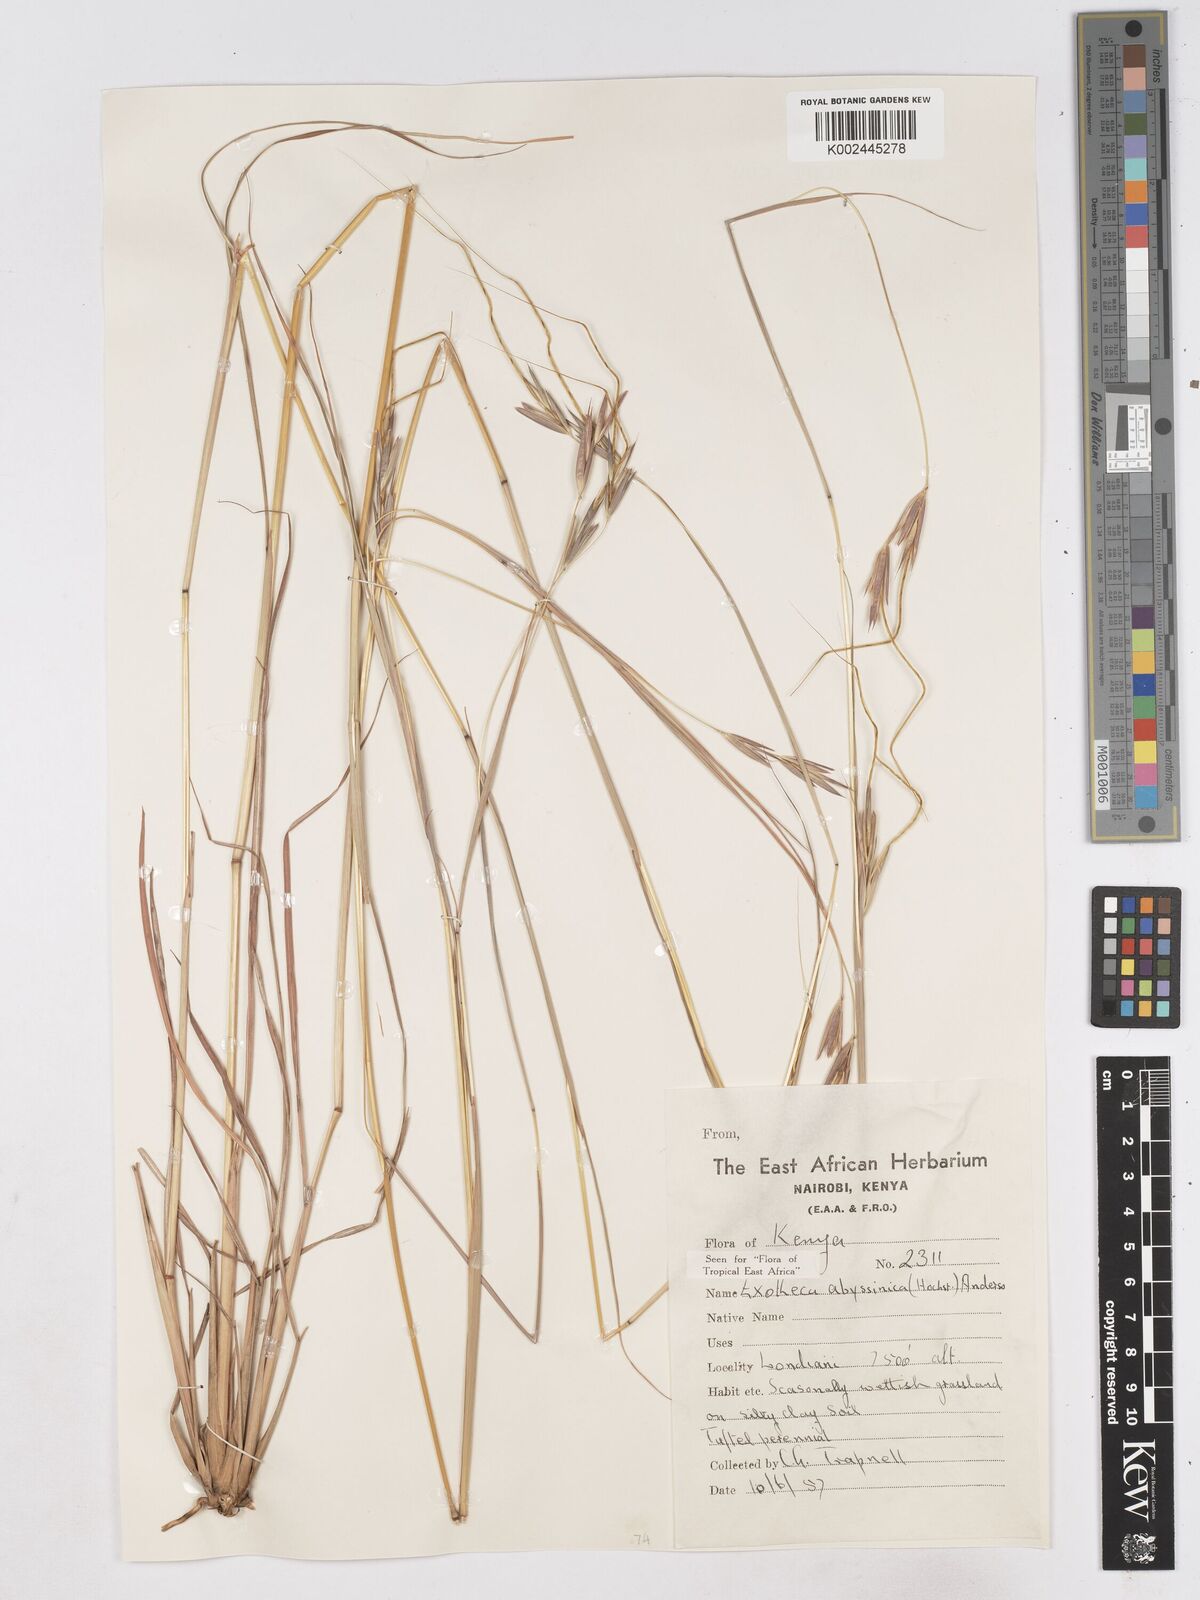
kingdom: Plantae
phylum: Tracheophyta
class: Liliopsida
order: Poales
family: Poaceae
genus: Exotheca
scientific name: Exotheca abyssinica
